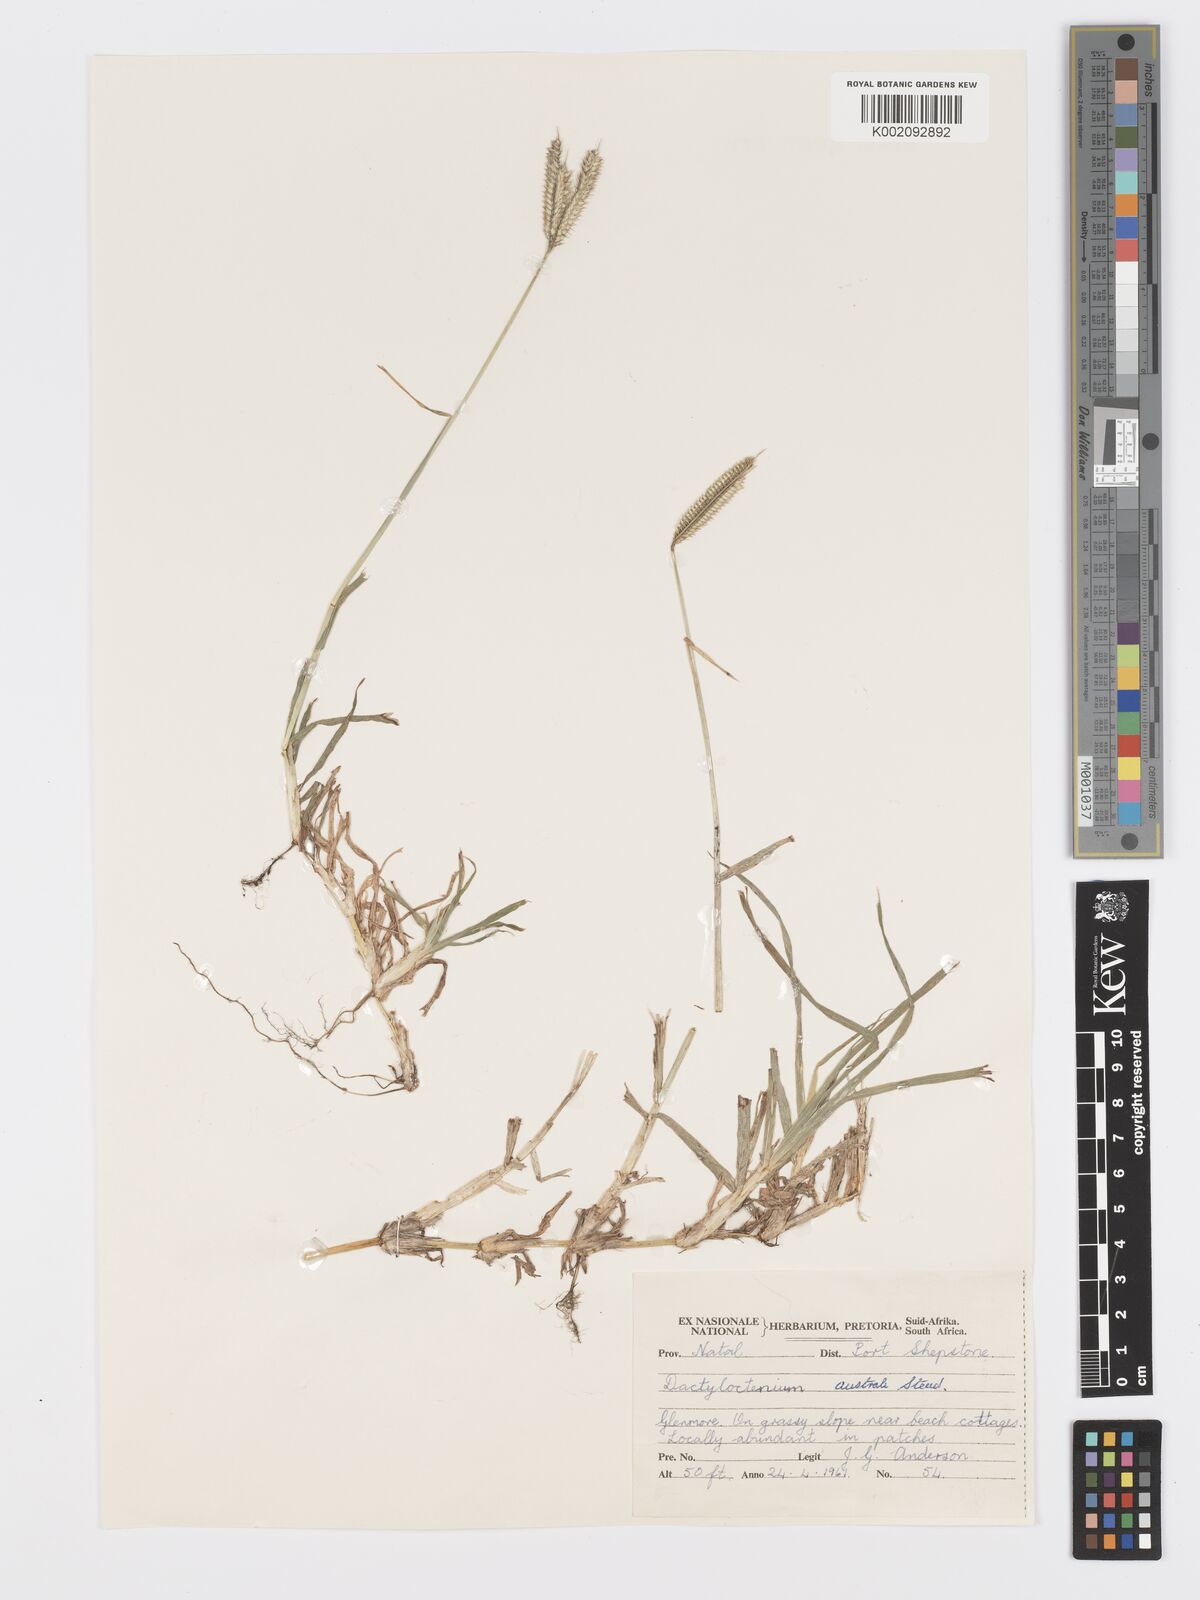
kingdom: Plantae
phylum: Tracheophyta
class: Liliopsida
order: Poales
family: Poaceae
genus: Dactyloctenium
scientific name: Dactyloctenium australe
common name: Durban grass
